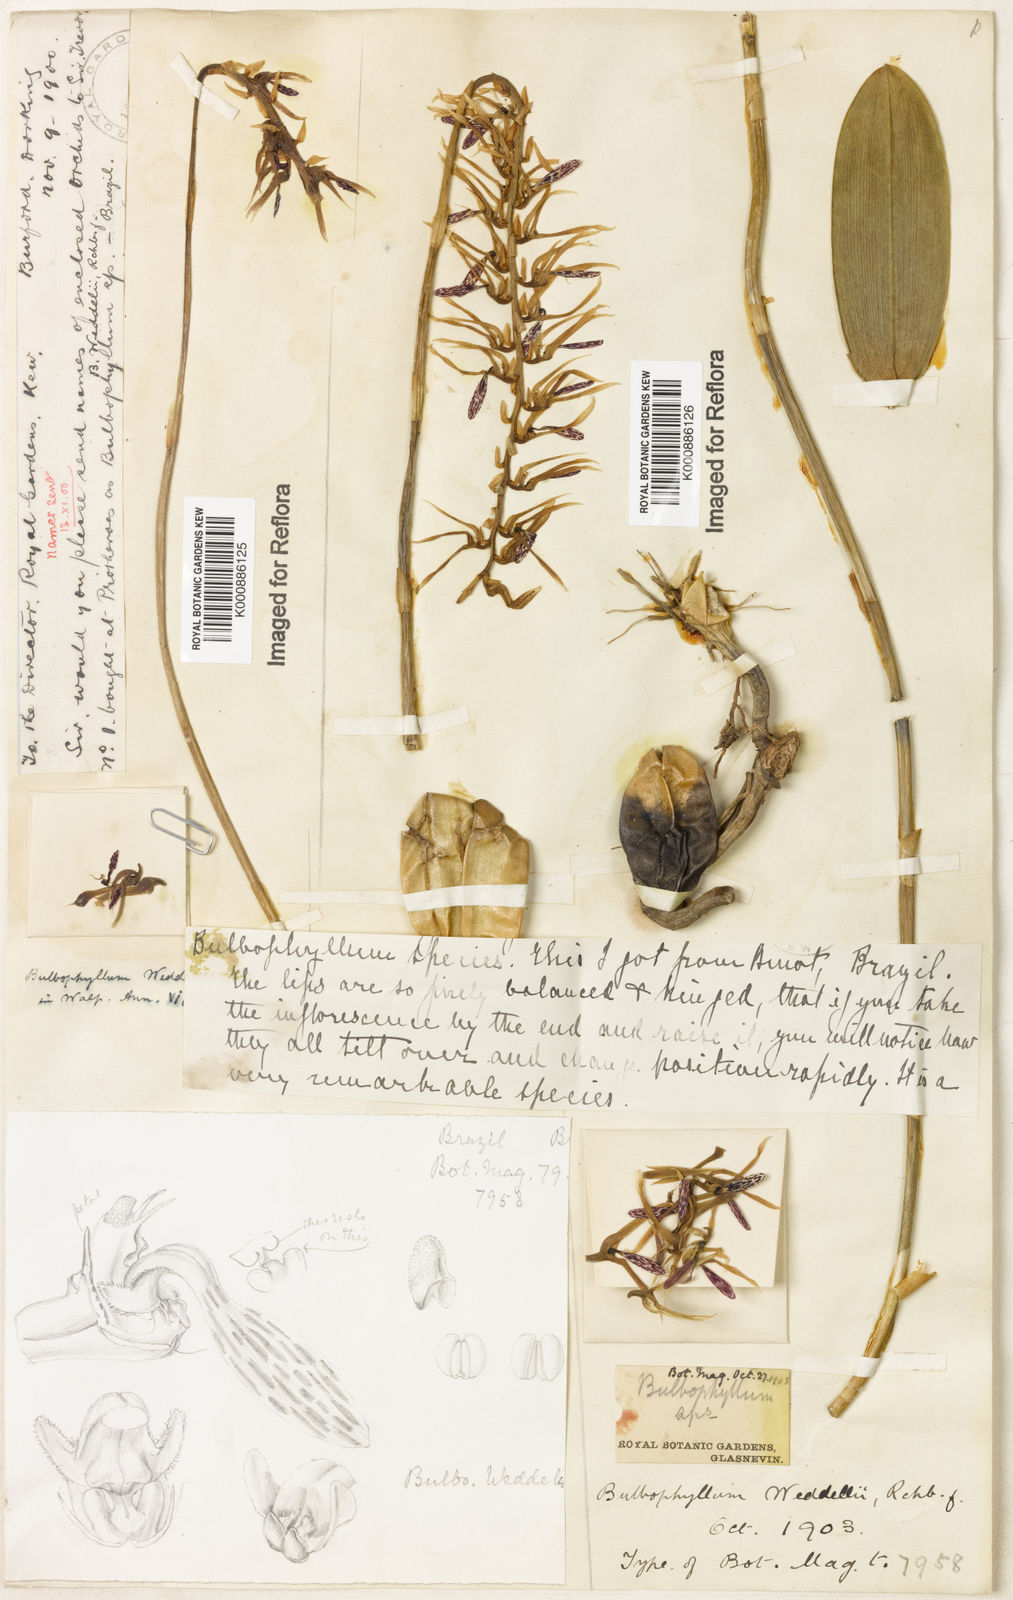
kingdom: Plantae
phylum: Tracheophyta
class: Liliopsida
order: Asparagales
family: Orchidaceae
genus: Bulbophyllum
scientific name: Bulbophyllum weddellii
